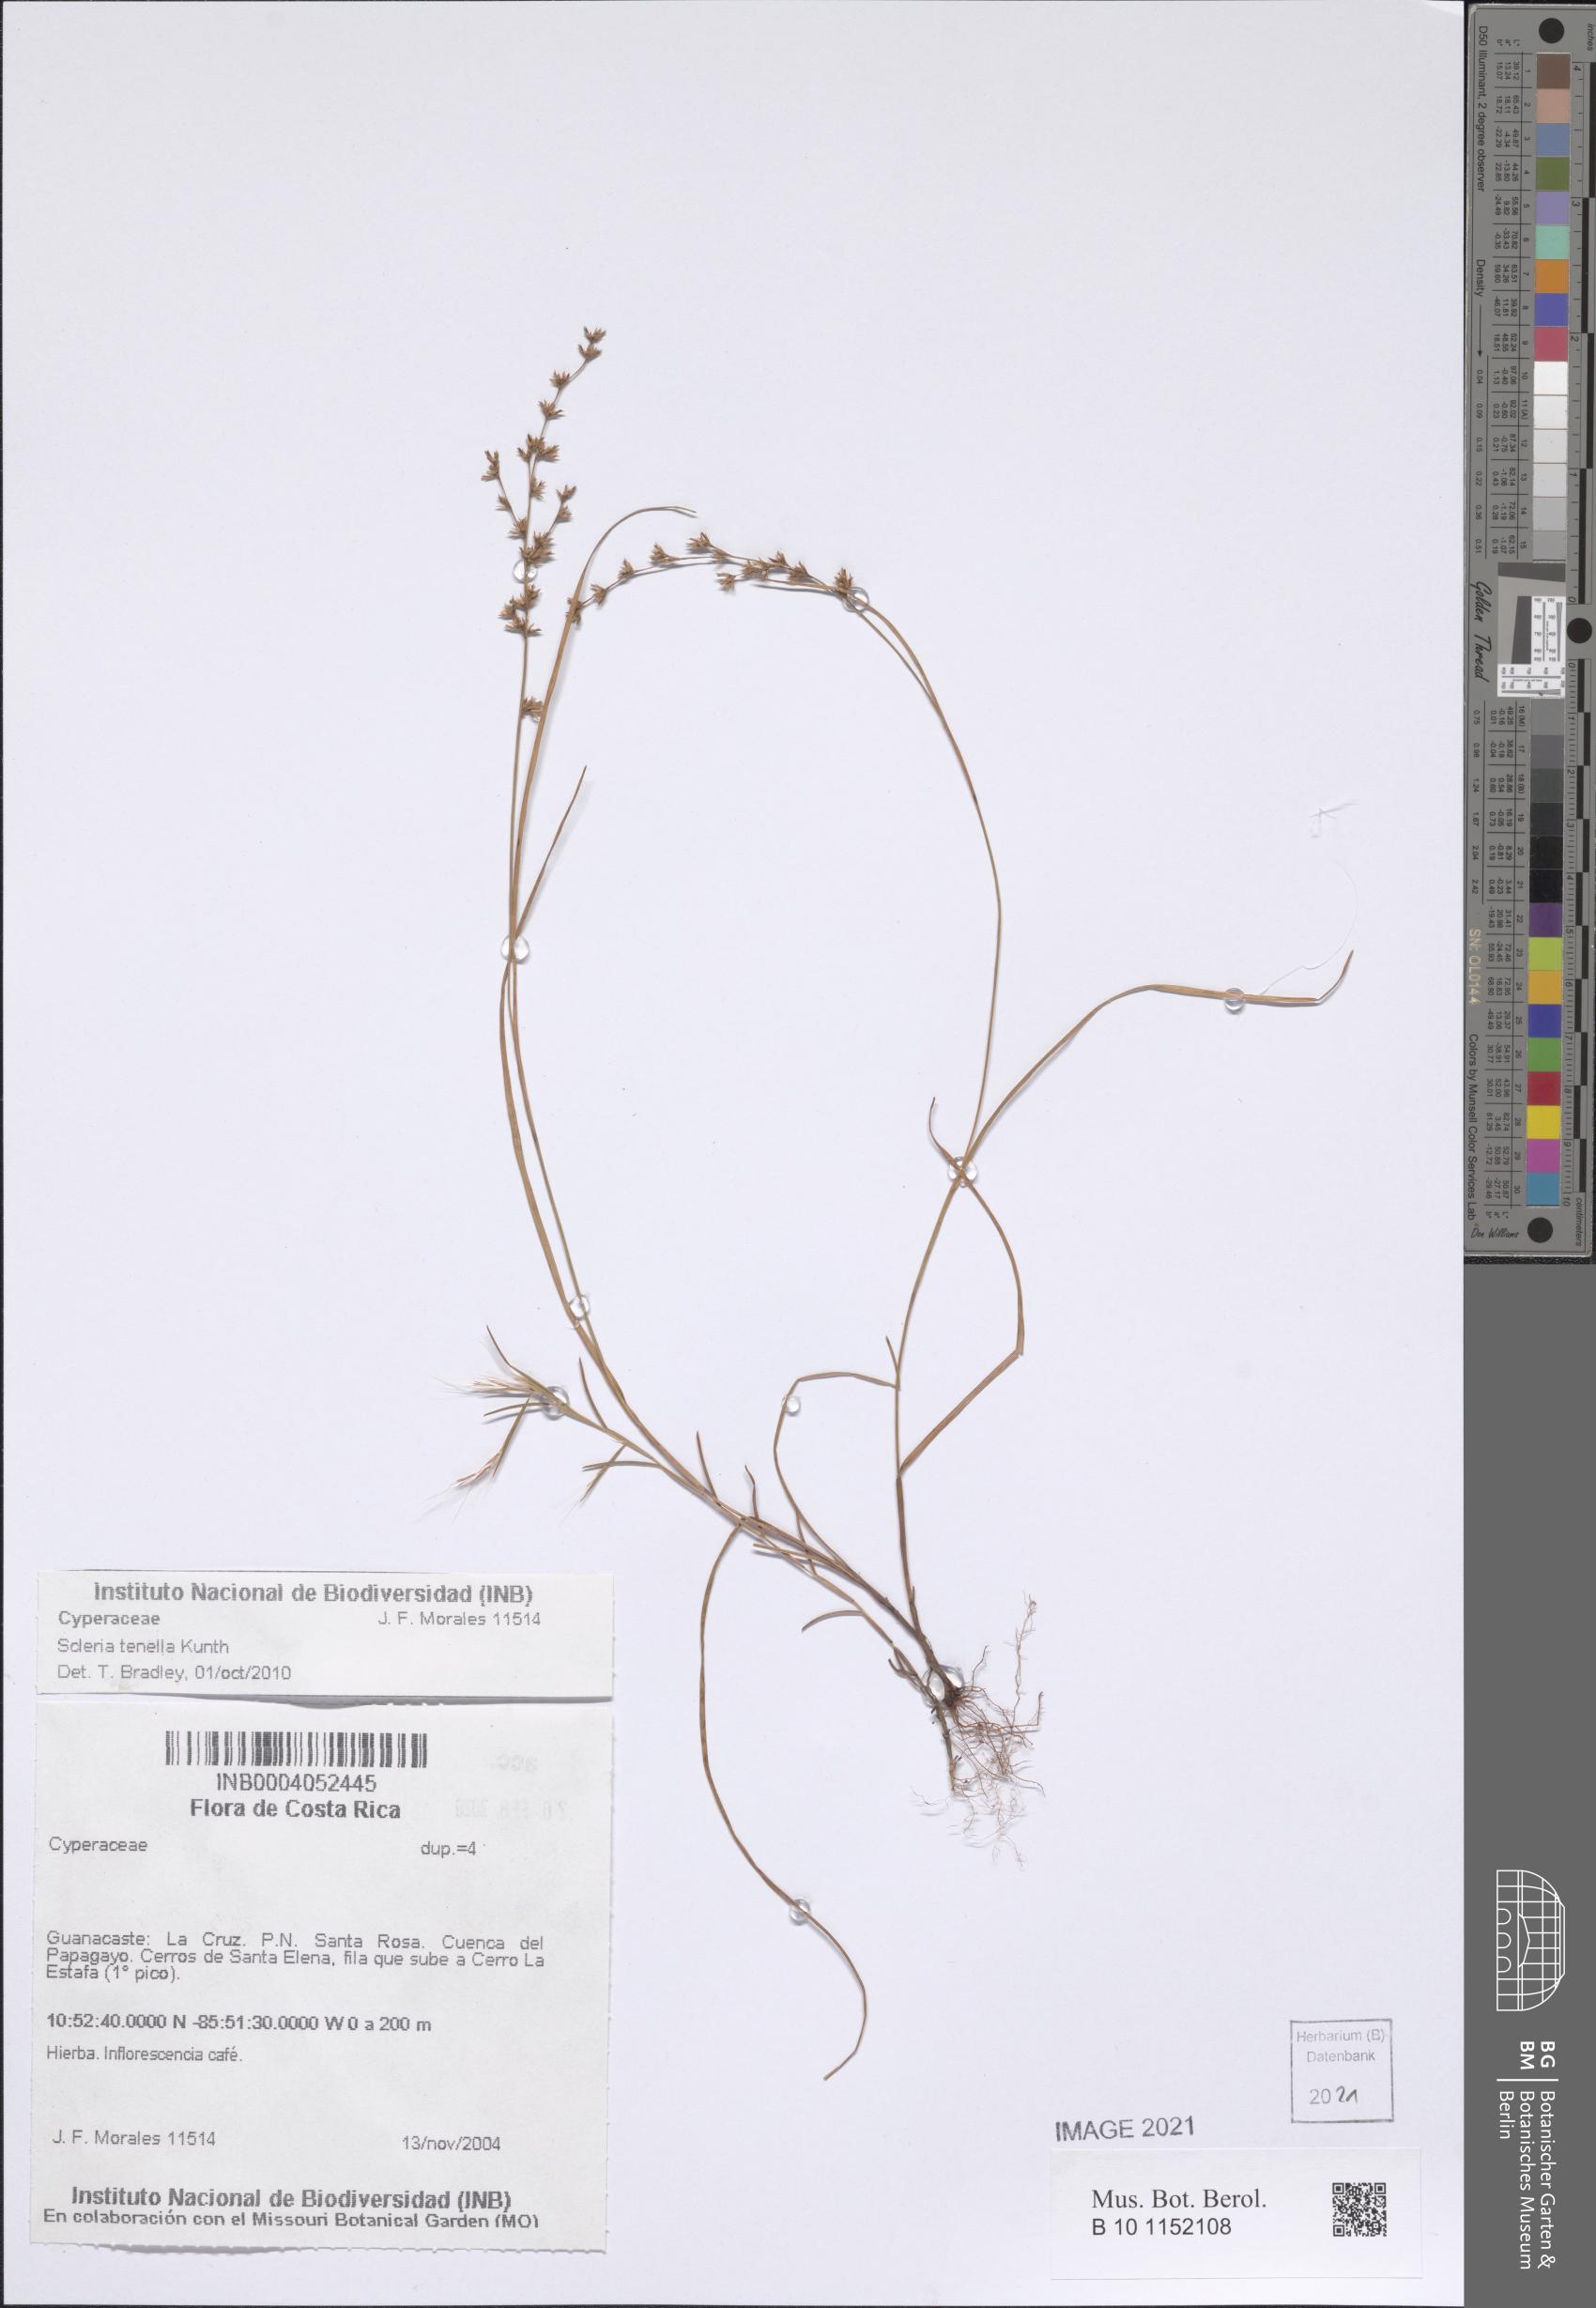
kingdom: Plantae
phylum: Tracheophyta
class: Liliopsida
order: Poales
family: Cyperaceae
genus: Scleria
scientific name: Scleria tenella
